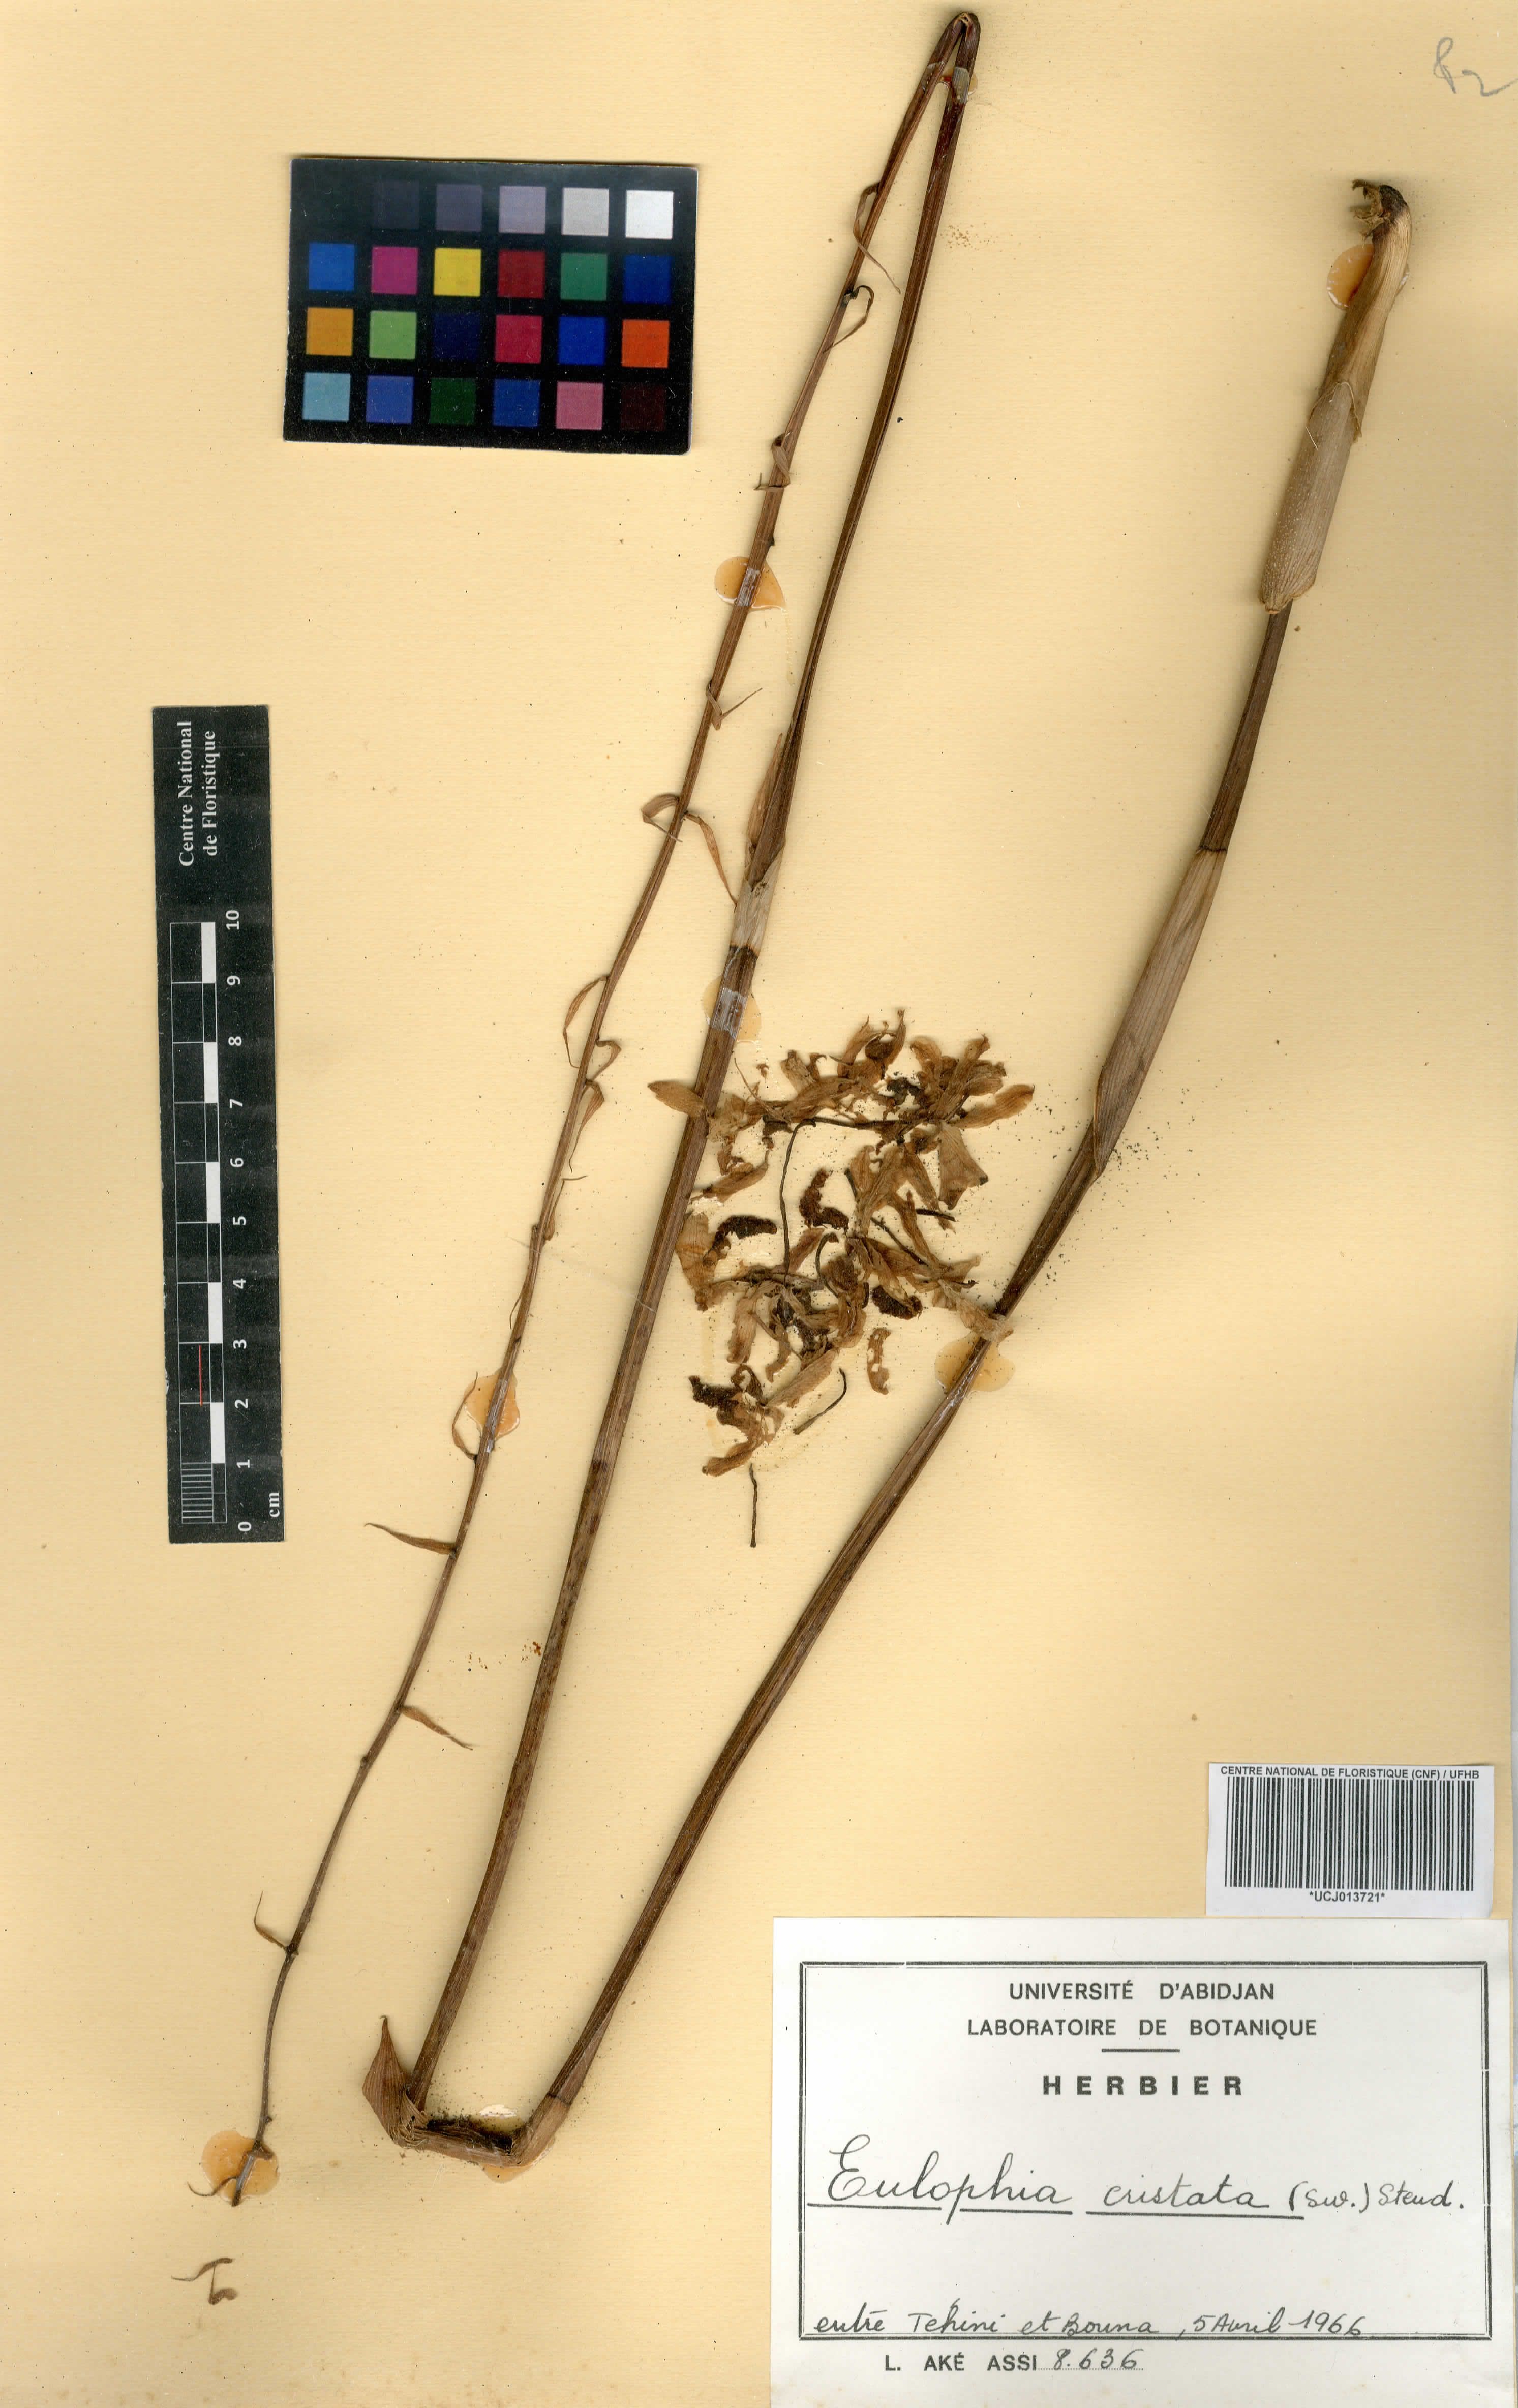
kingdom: Plantae
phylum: Tracheophyta
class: Liliopsida
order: Asparagales
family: Orchidaceae
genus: Eulophia
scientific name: Eulophia cristata
